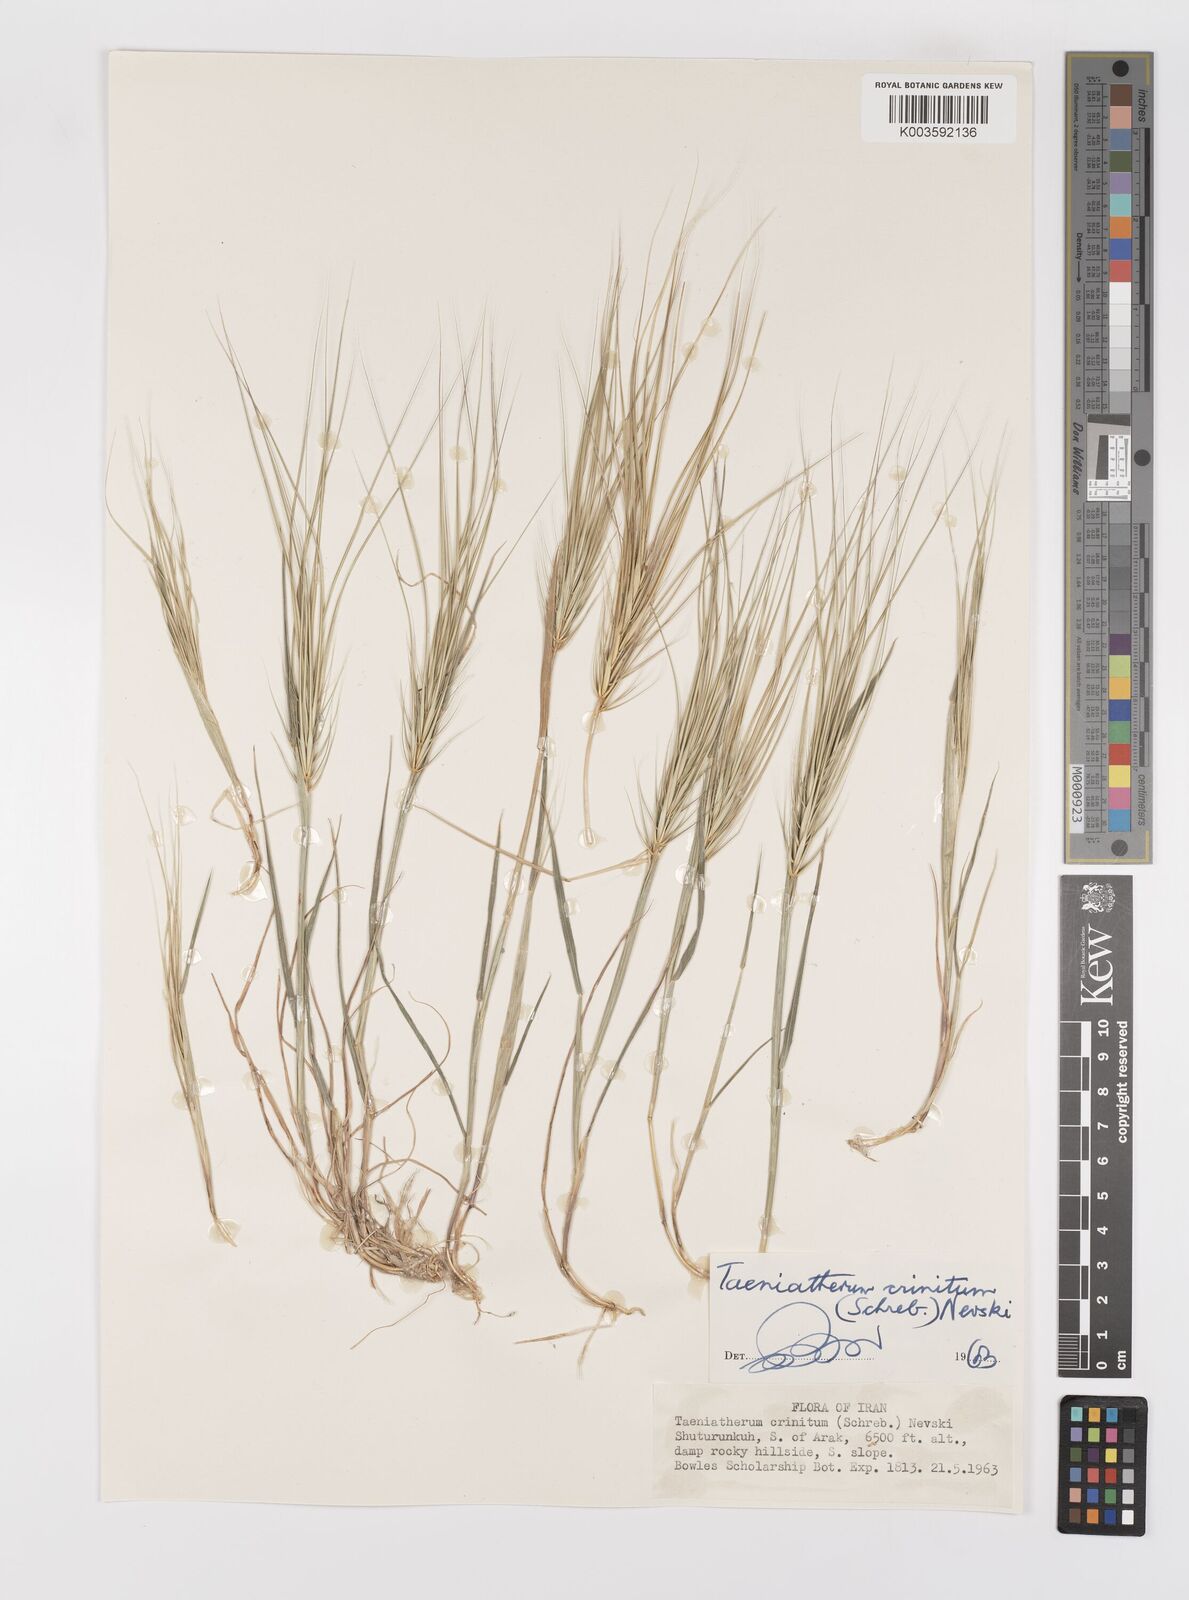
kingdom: Plantae
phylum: Tracheophyta
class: Liliopsida
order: Poales
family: Poaceae
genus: Taeniatherum
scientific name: Taeniatherum caput-medusae
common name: Medusahead
